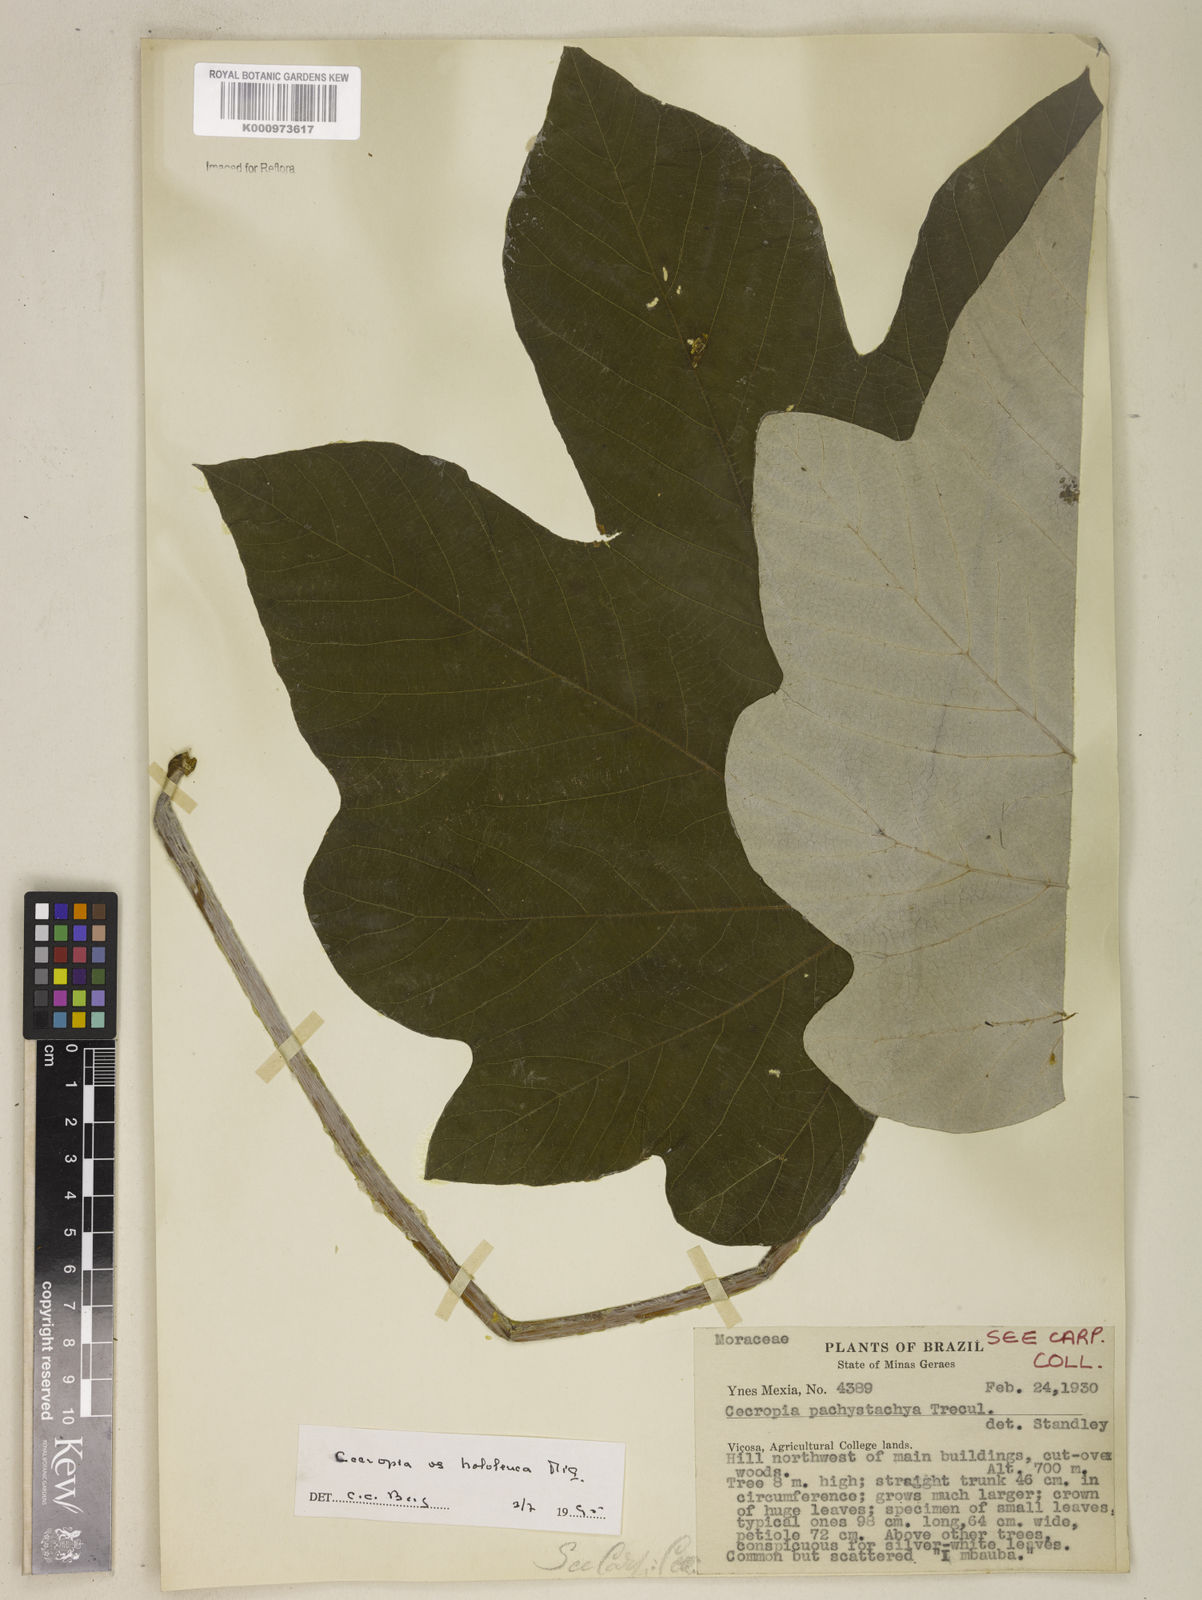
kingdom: Plantae
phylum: Tracheophyta
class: Magnoliopsida
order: Rosales
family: Urticaceae
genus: Cecropia
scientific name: Cecropia hololeuca
